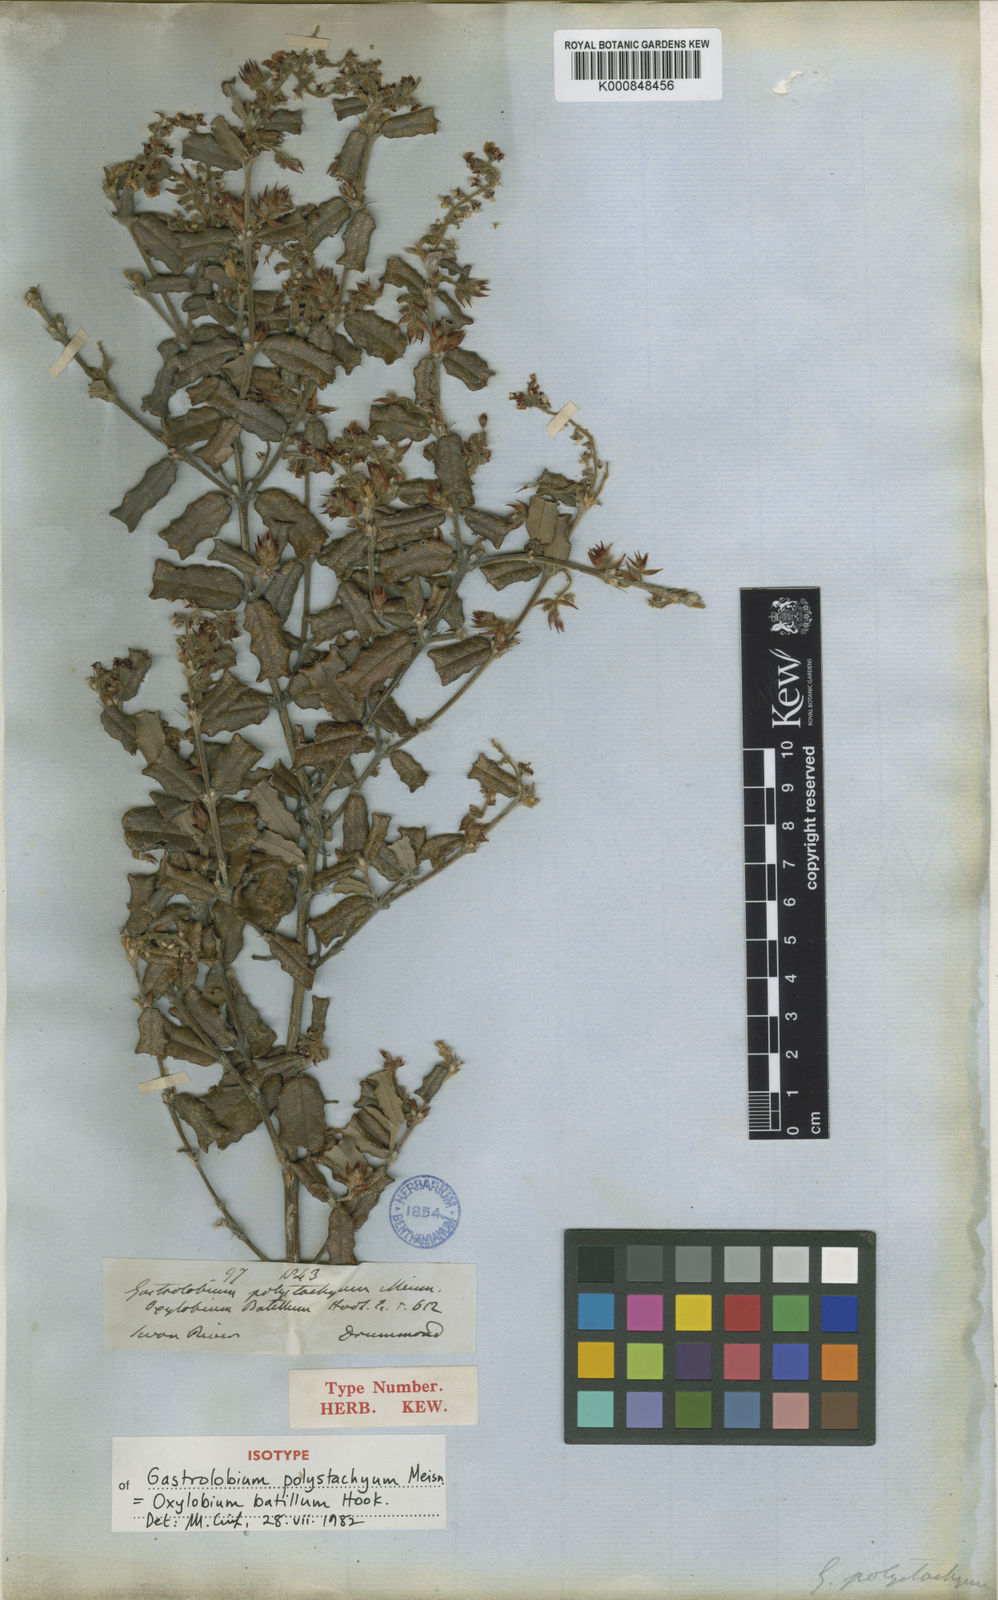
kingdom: Plantae
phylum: Tracheophyta
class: Magnoliopsida
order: Fabales
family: Fabaceae
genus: Gastrolobium
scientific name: Gastrolobium polystachyum
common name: Hill river poison
